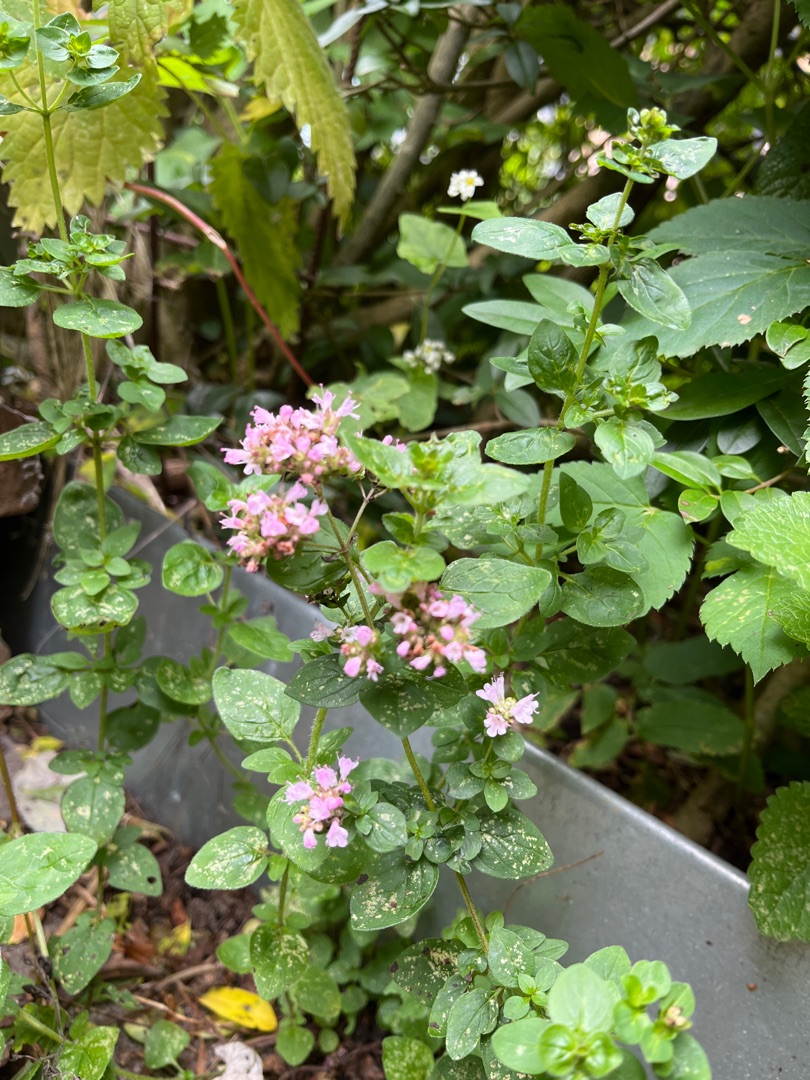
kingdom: Plantae
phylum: Tracheophyta
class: Magnoliopsida
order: Lamiales
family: Lamiaceae
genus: Origanum
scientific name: Origanum vulgare
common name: Merian
